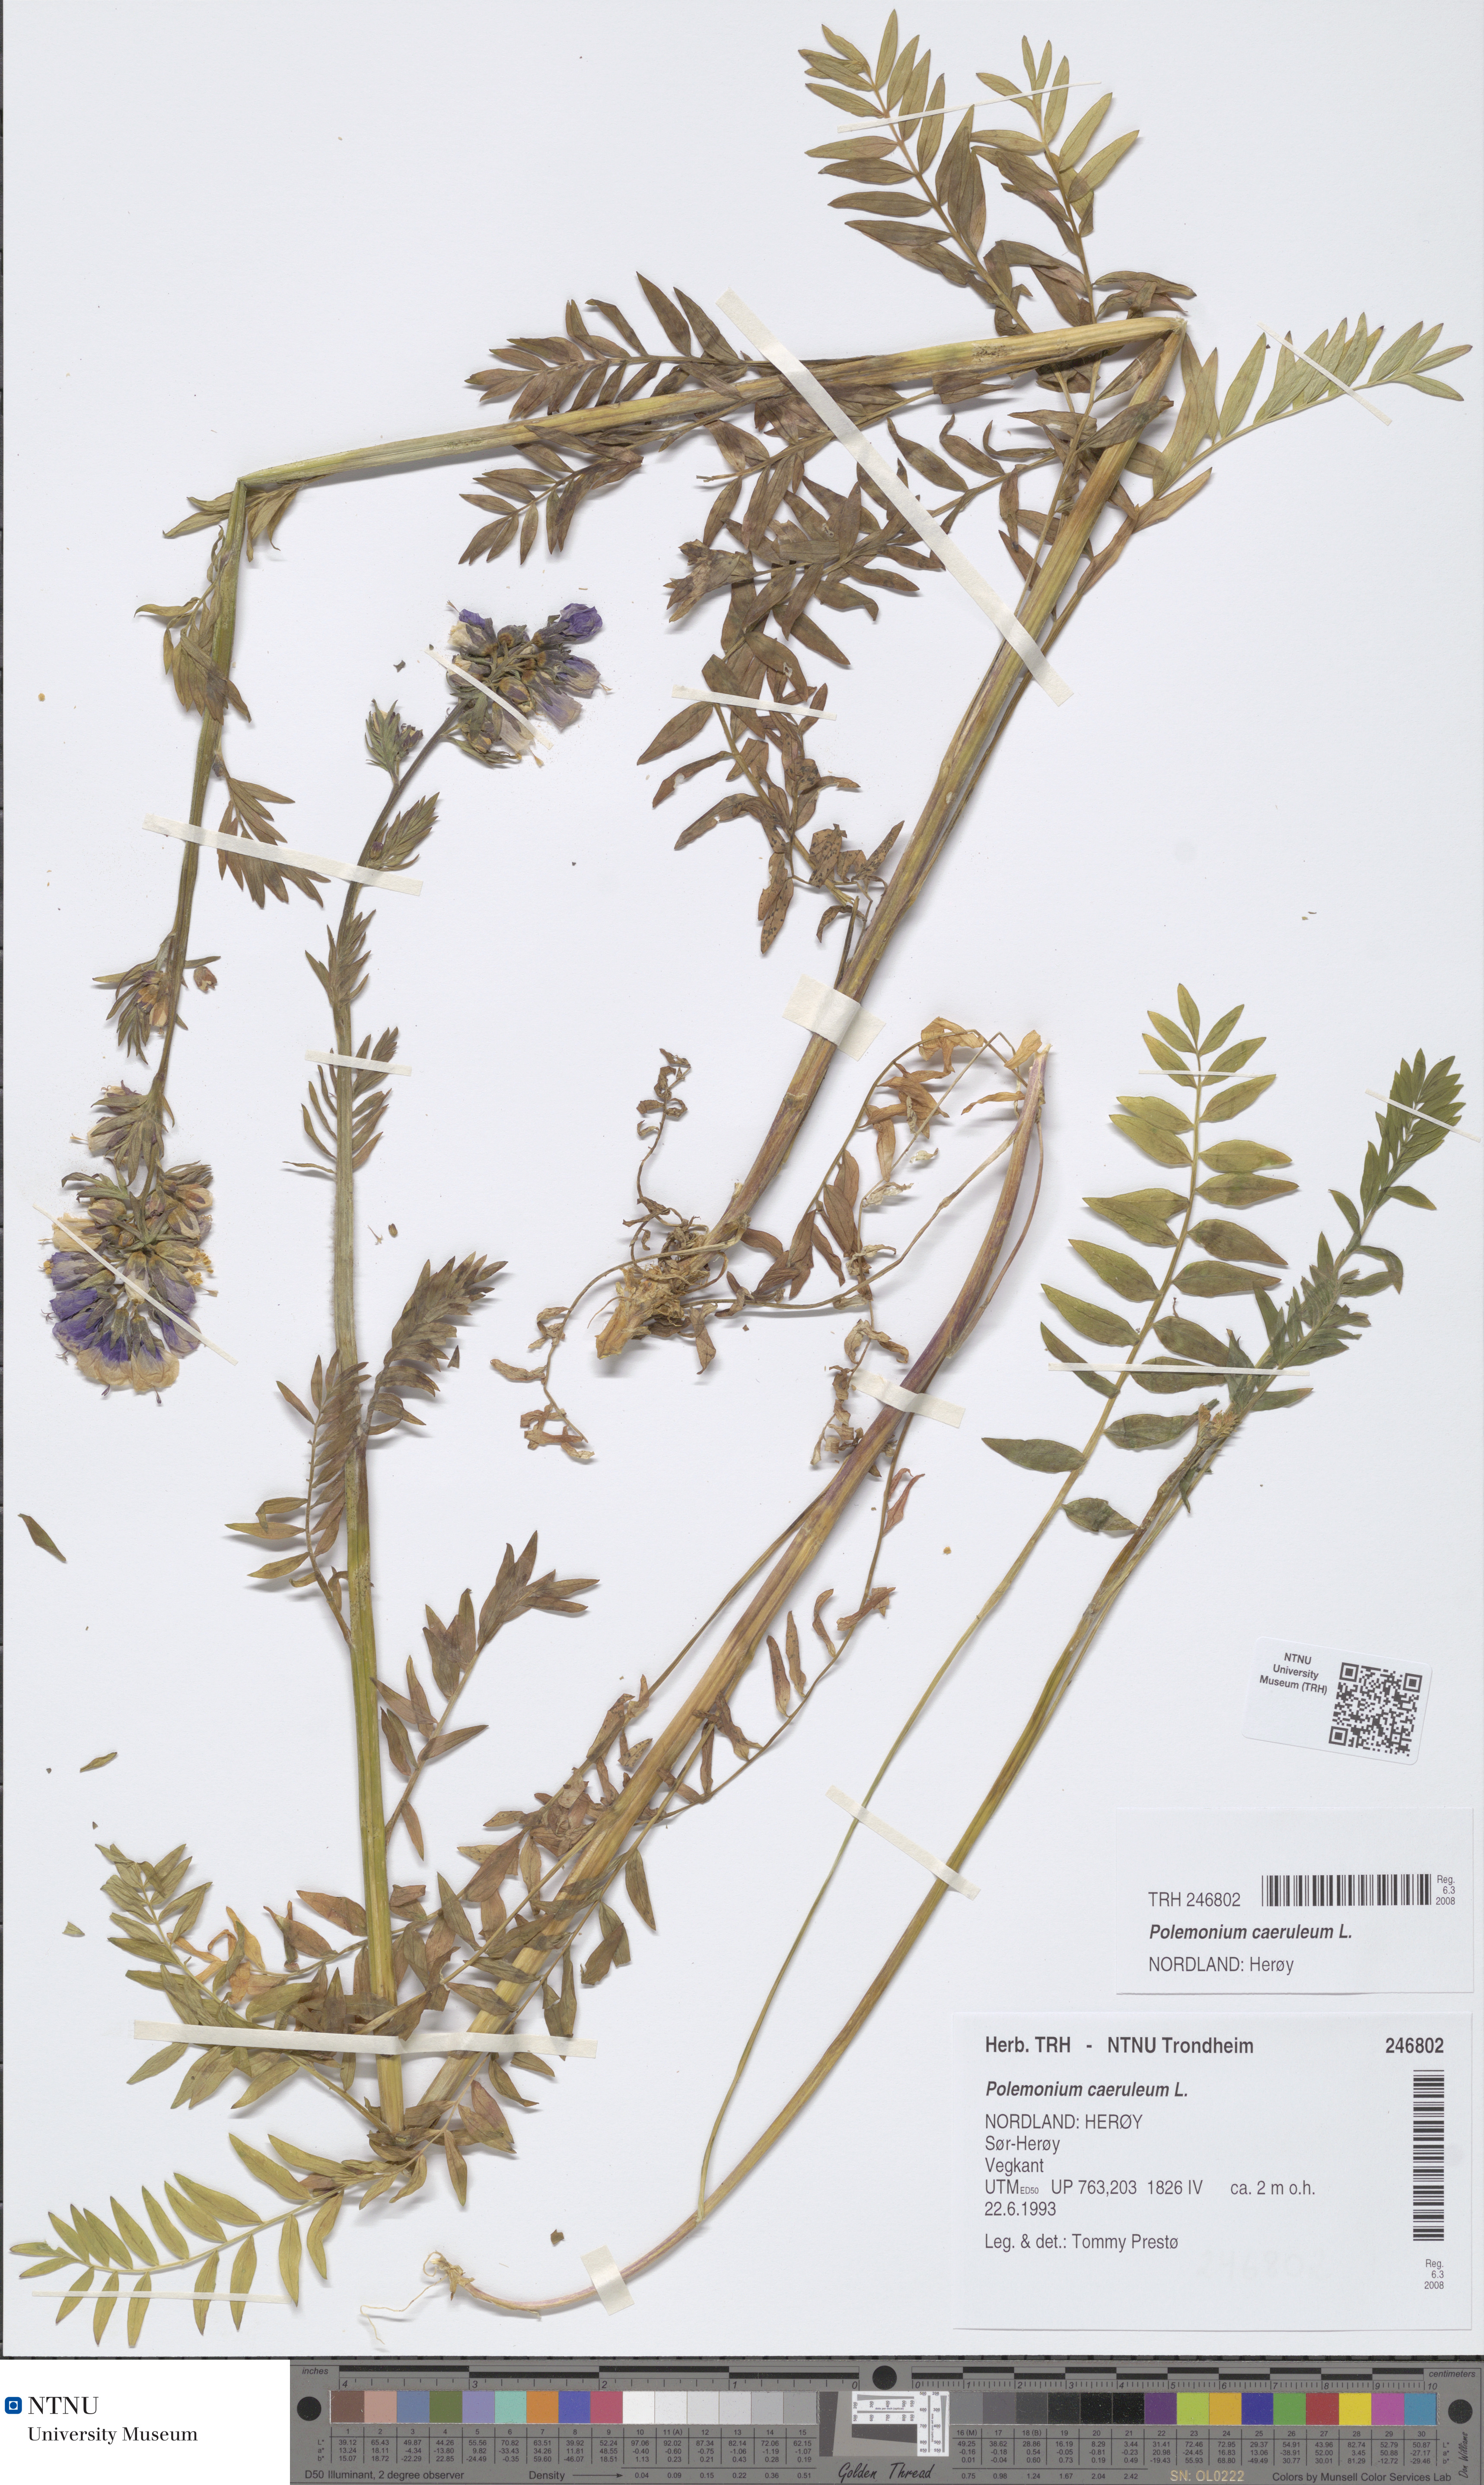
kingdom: Plantae
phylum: Tracheophyta
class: Magnoliopsida
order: Ericales
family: Polemoniaceae
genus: Polemonium
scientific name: Polemonium caeruleum
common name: Jacob's-ladder
